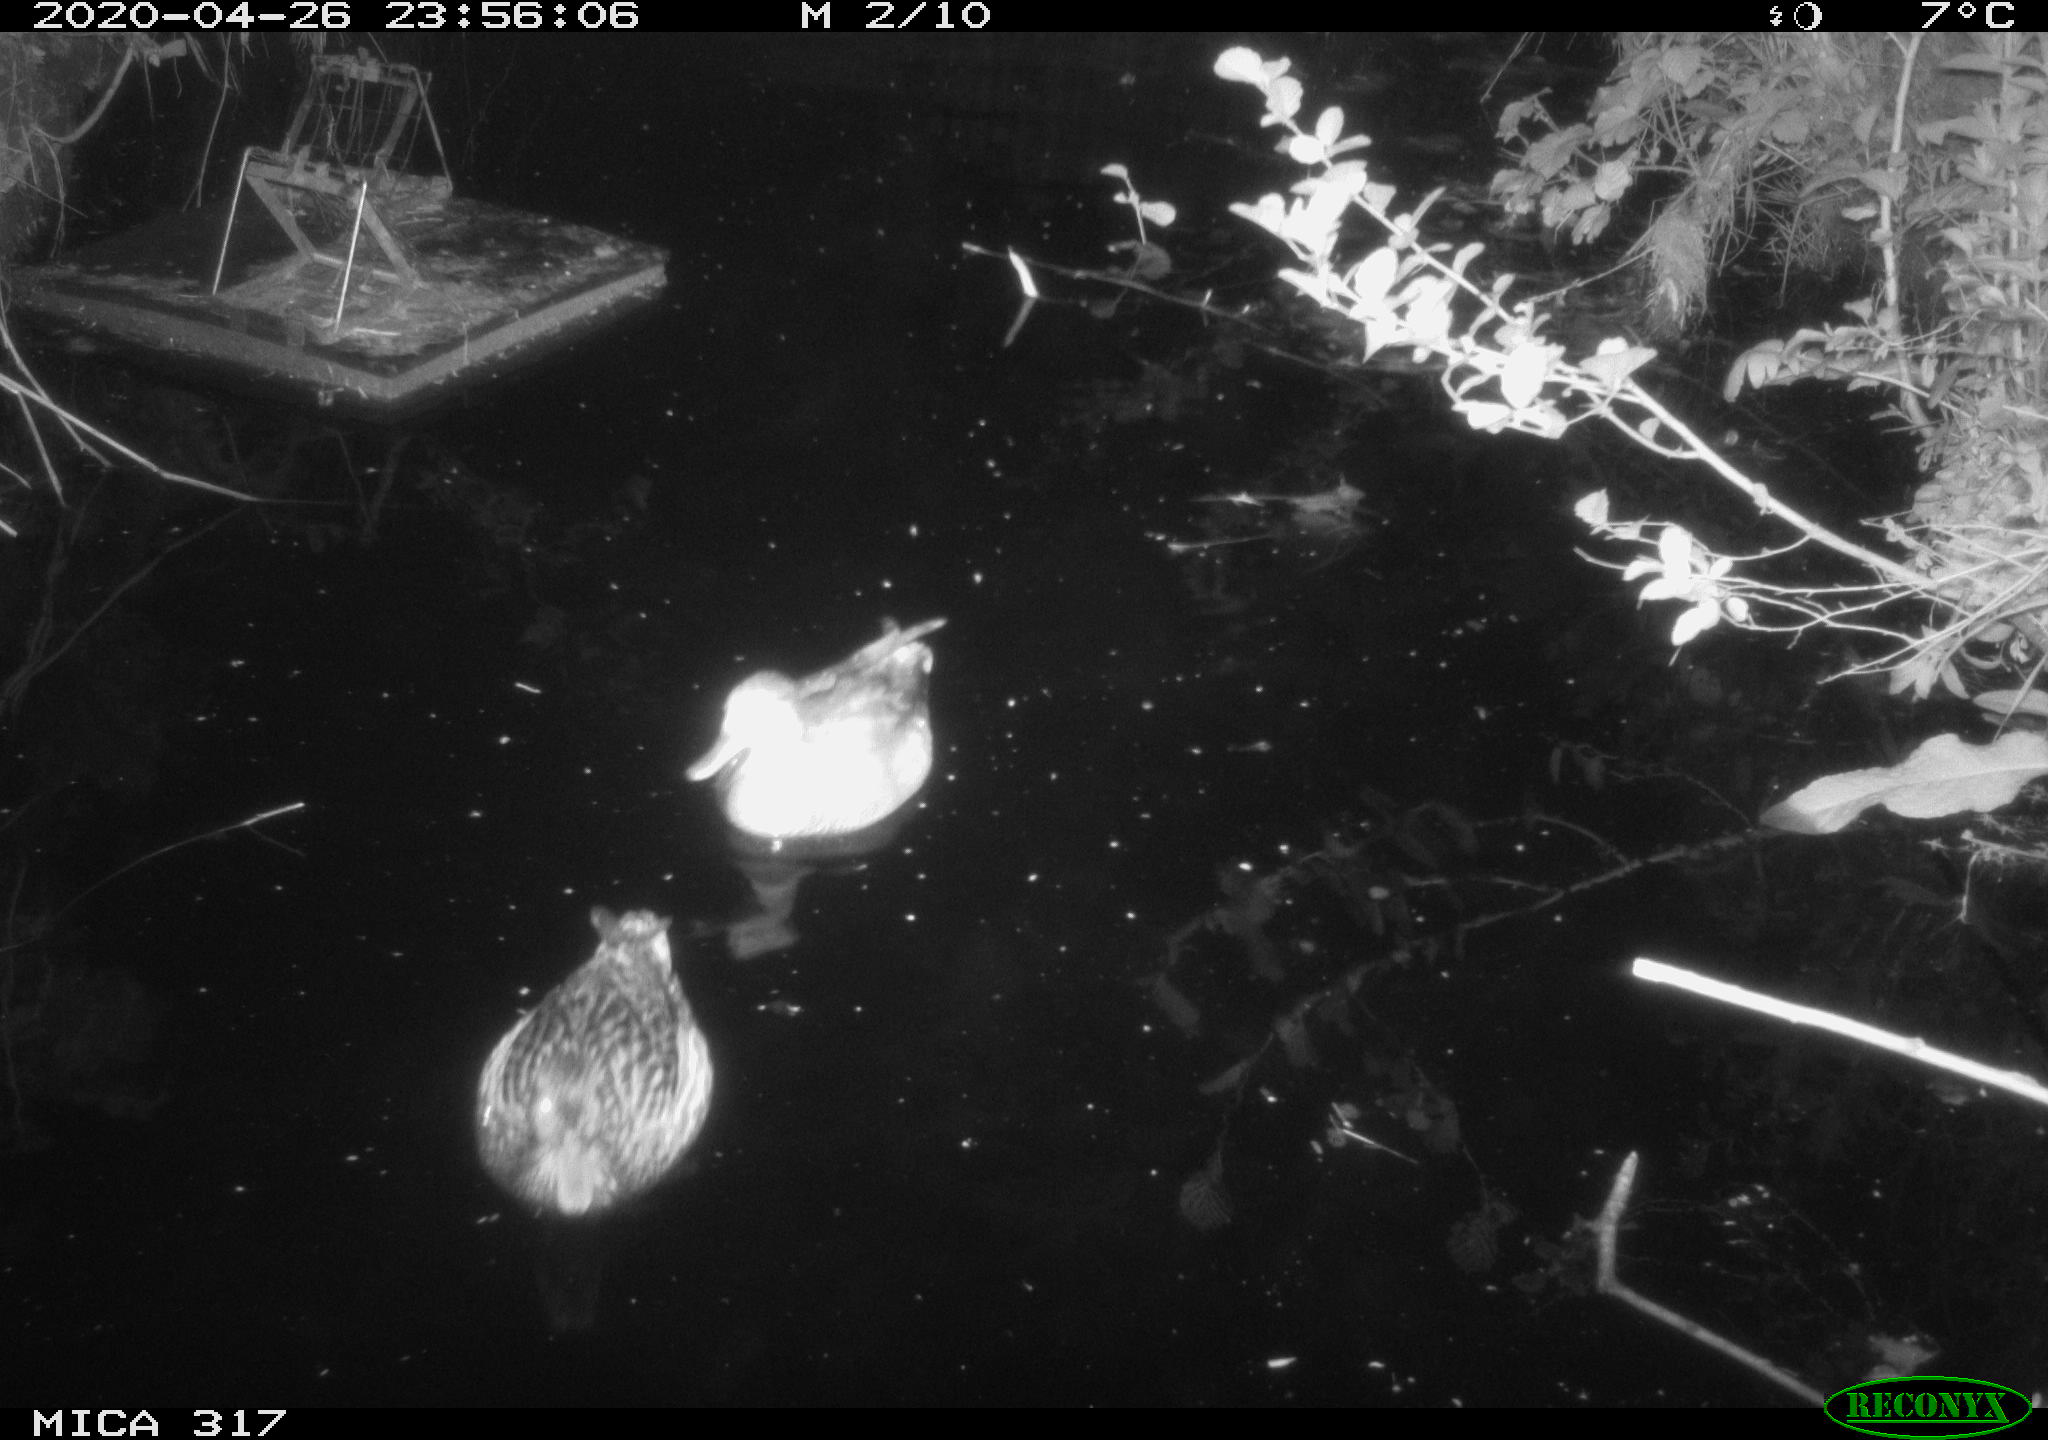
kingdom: Animalia
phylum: Chordata
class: Aves
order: Anseriformes
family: Anatidae
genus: Mareca
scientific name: Mareca strepera
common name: Gadwall
